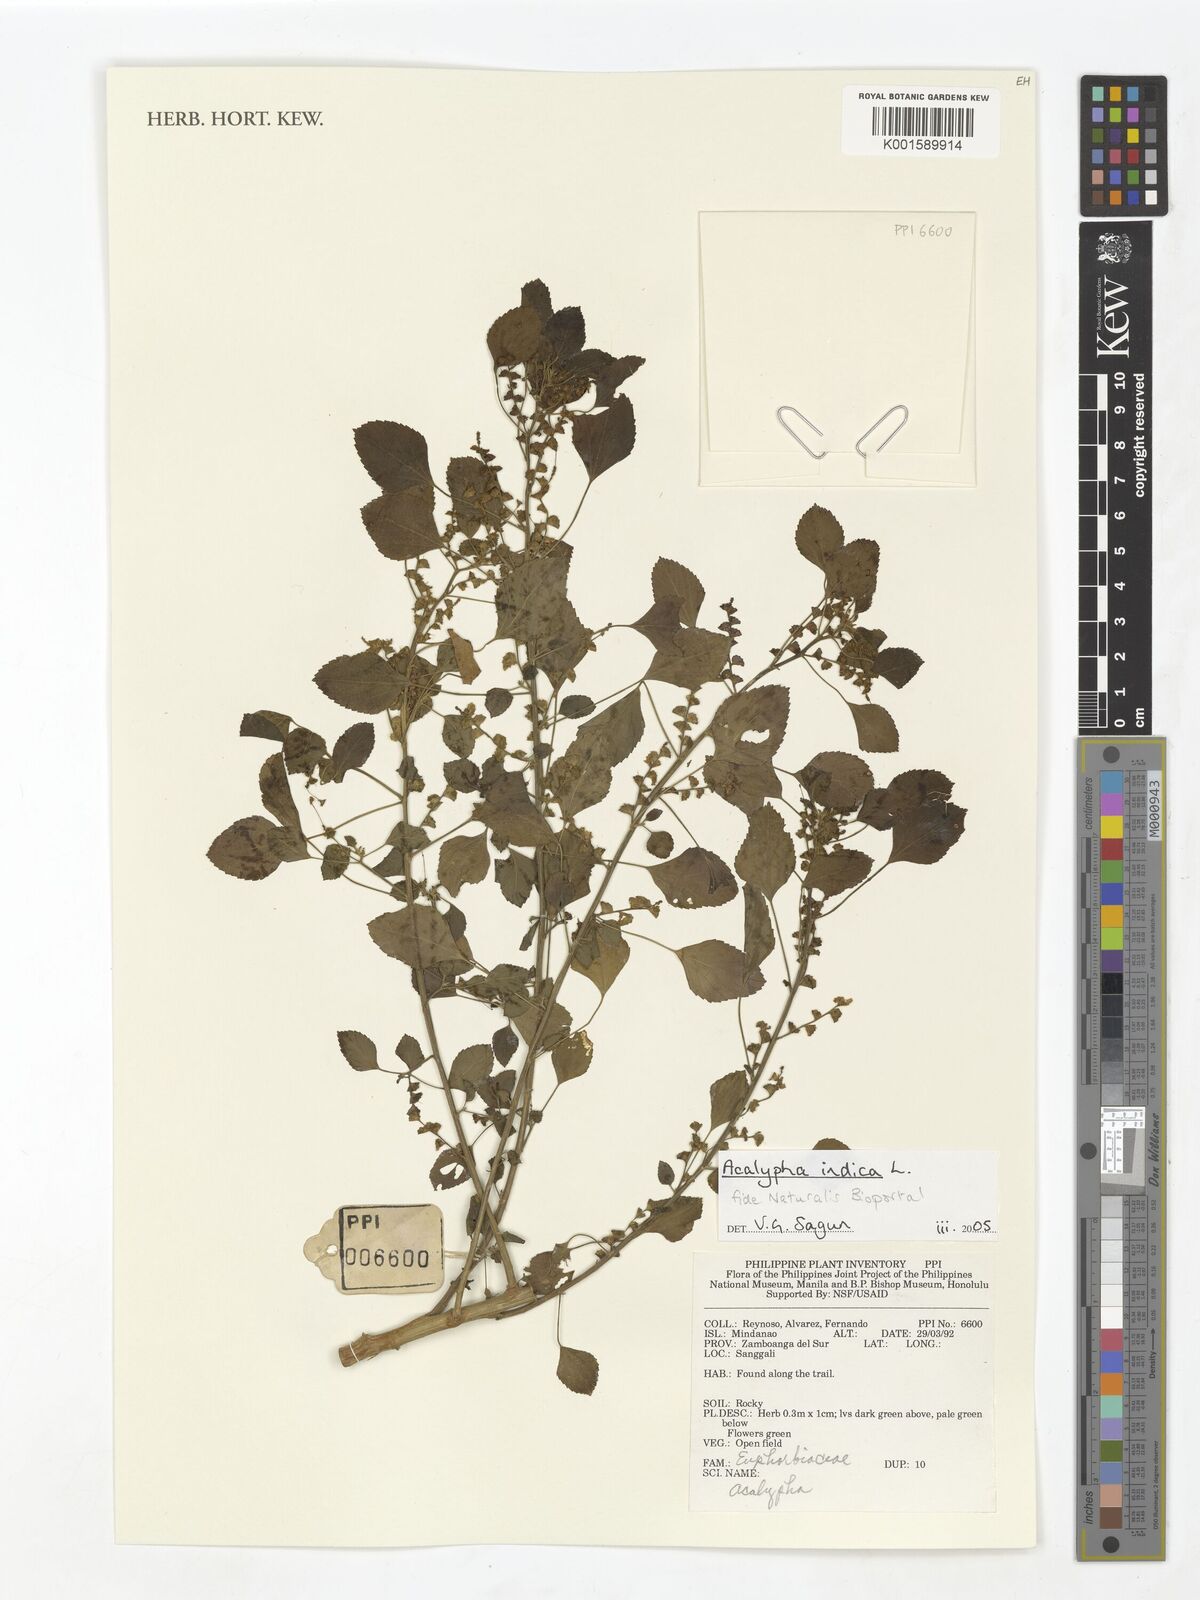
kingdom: Plantae
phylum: Tracheophyta
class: Magnoliopsida
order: Malpighiales
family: Euphorbiaceae
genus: Acalypha
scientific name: Acalypha indica
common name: Indian acalypha
